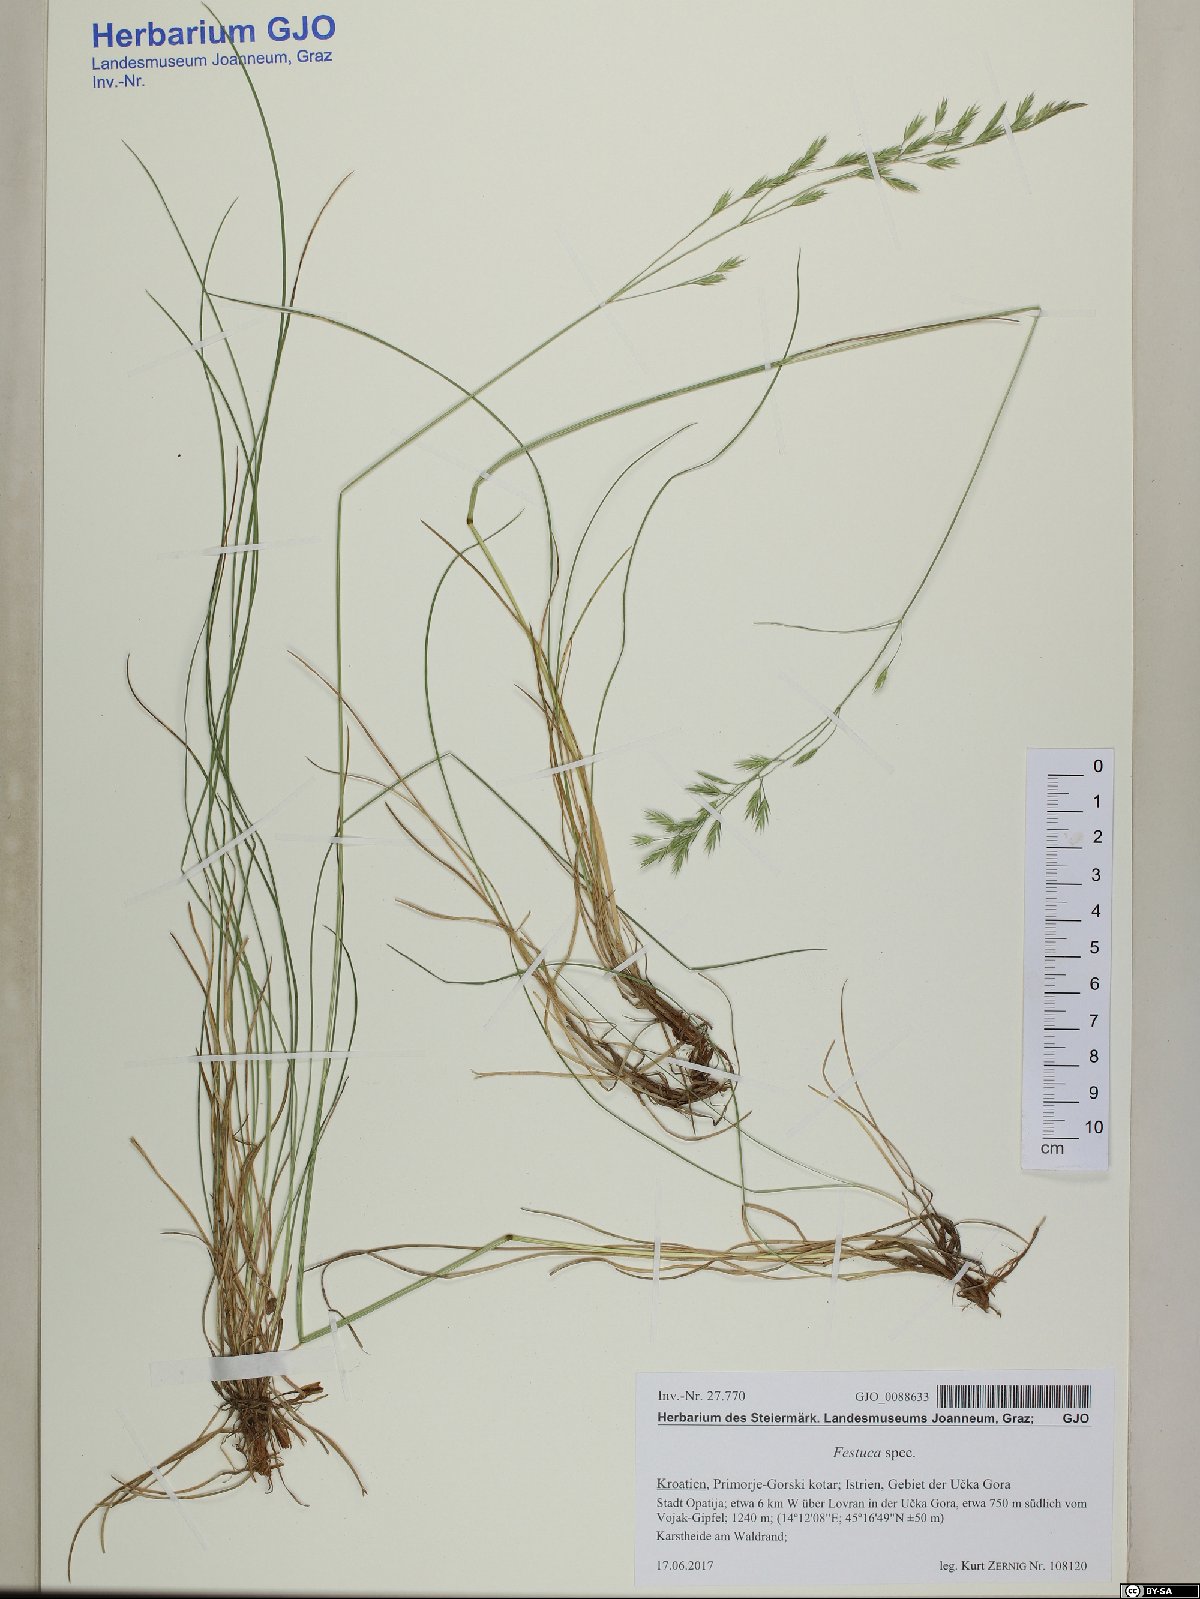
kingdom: Plantae
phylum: Tracheophyta
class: Liliopsida
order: Poales
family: Poaceae
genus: Festuca
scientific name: Festuca rubra
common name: Red fescue
